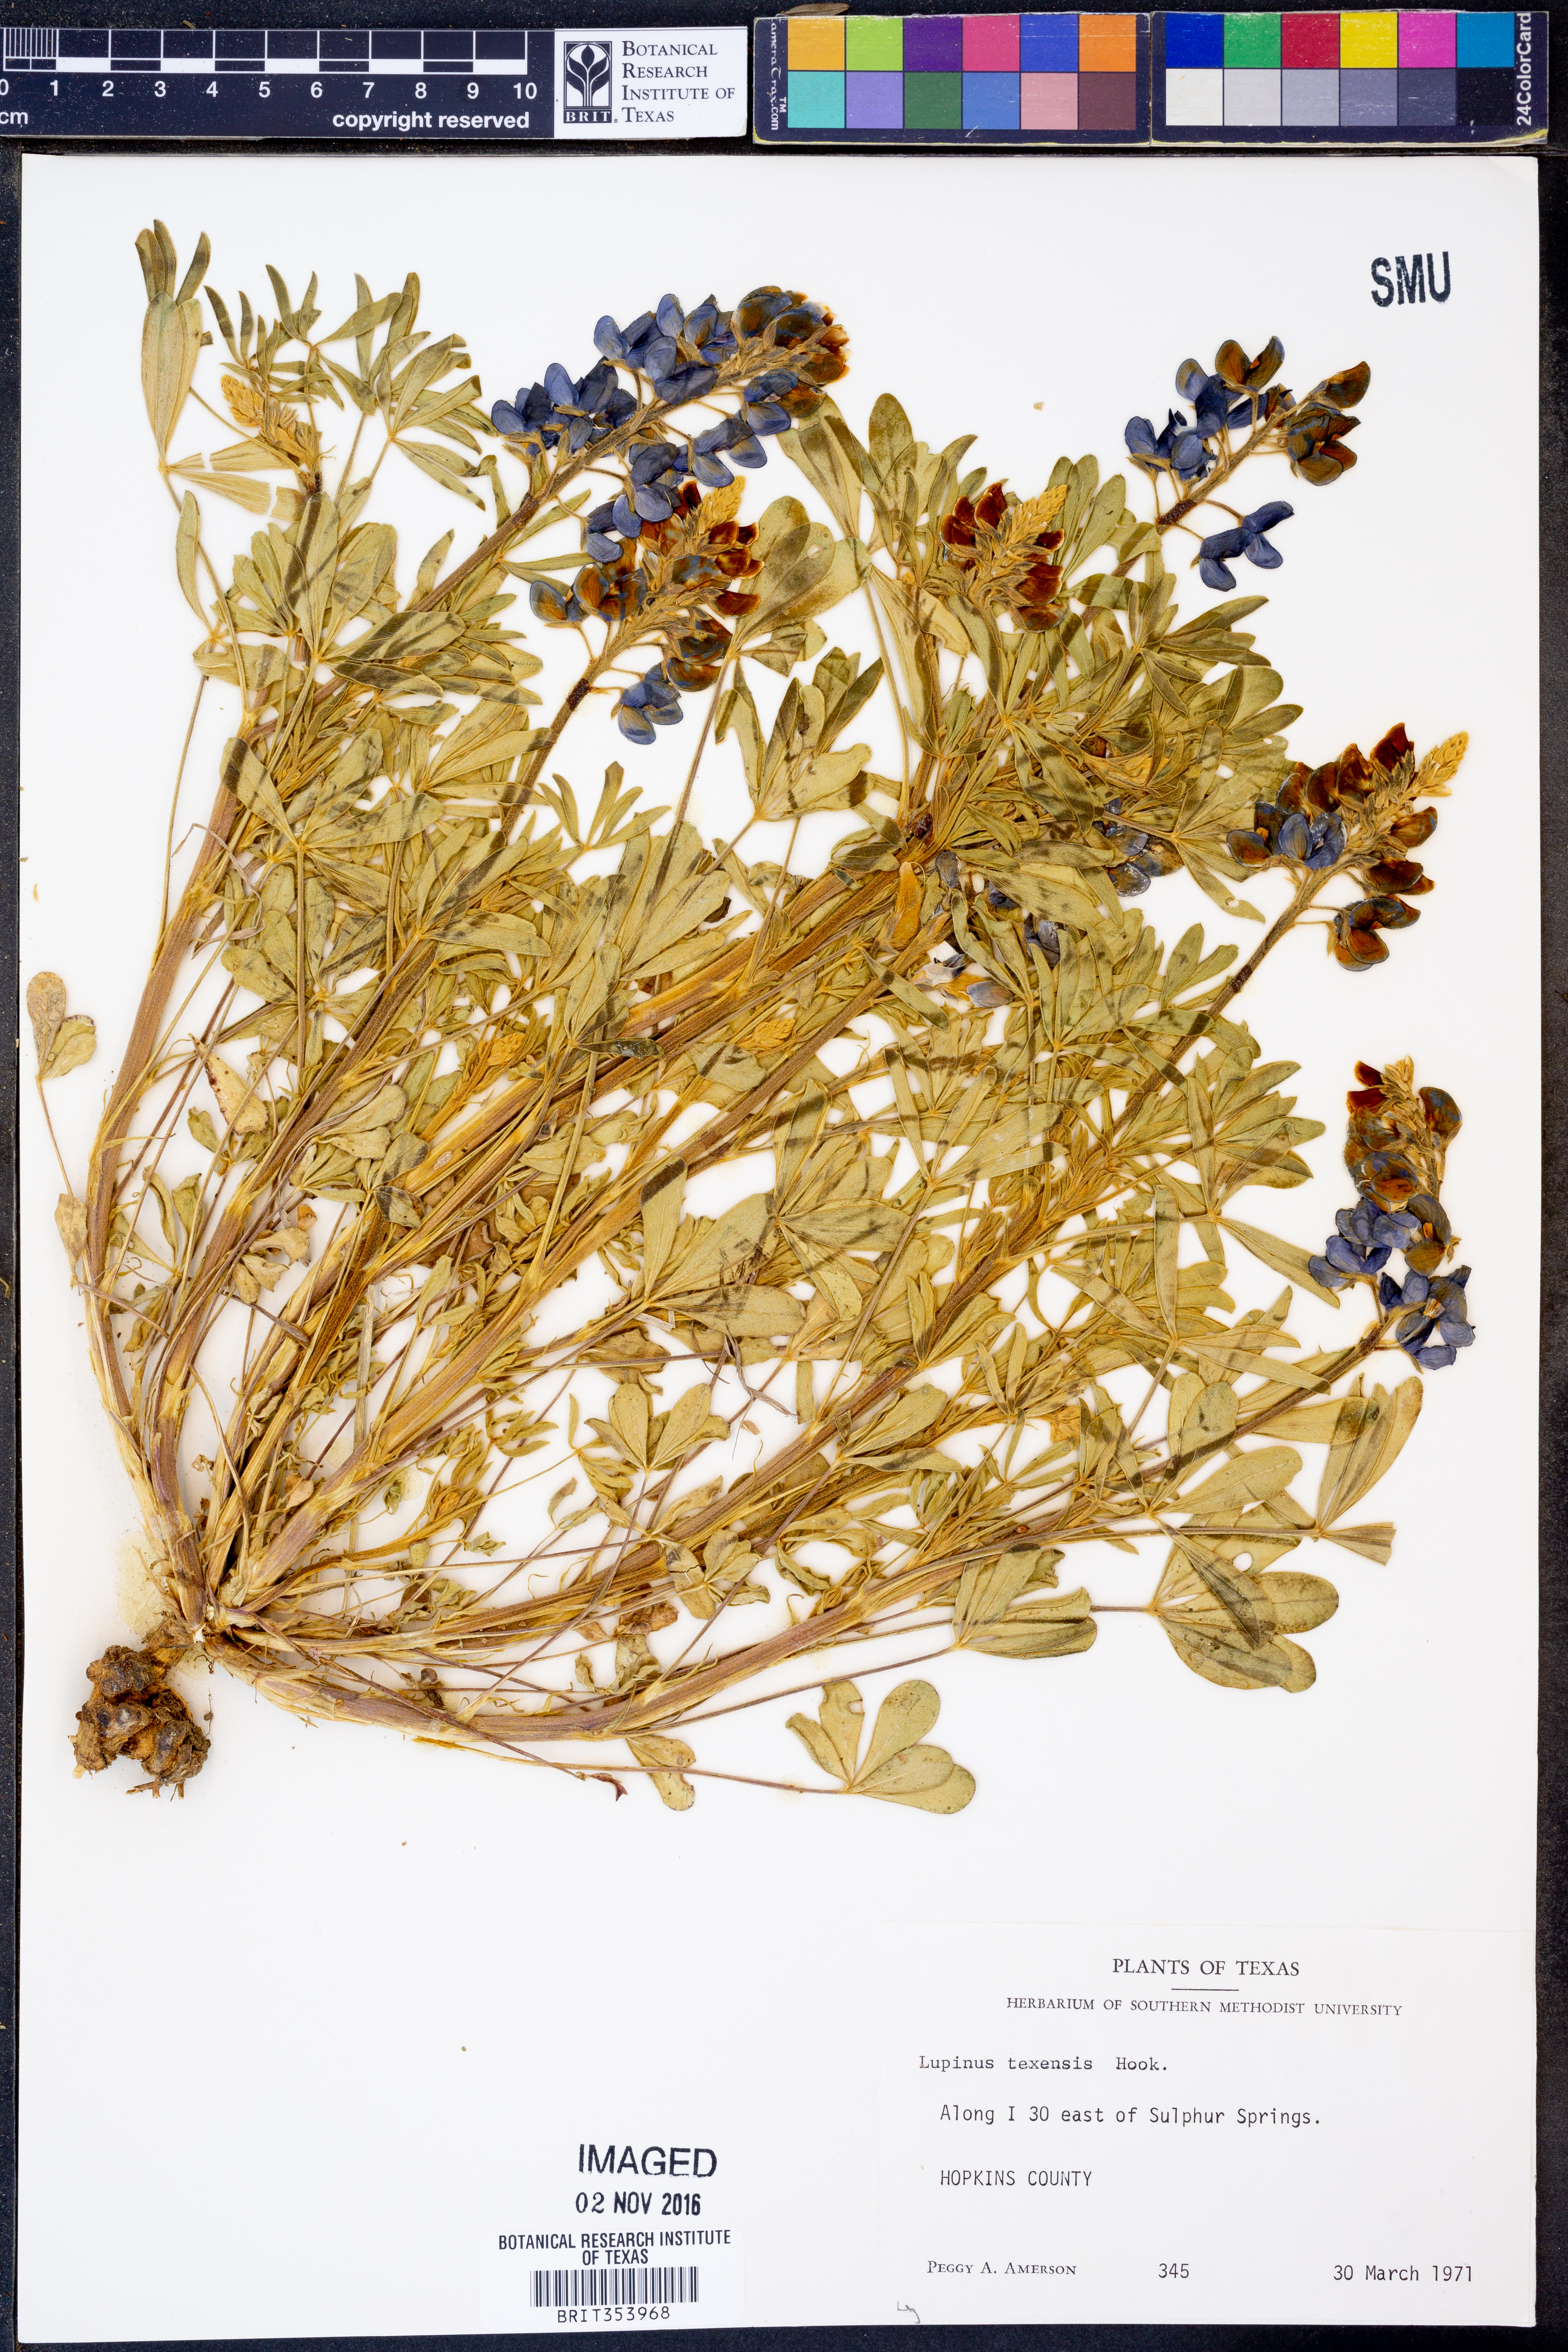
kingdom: Plantae
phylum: Tracheophyta
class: Magnoliopsida
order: Fabales
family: Fabaceae
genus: Lupinus
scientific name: Lupinus texensis
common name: Texas bluebonnet
